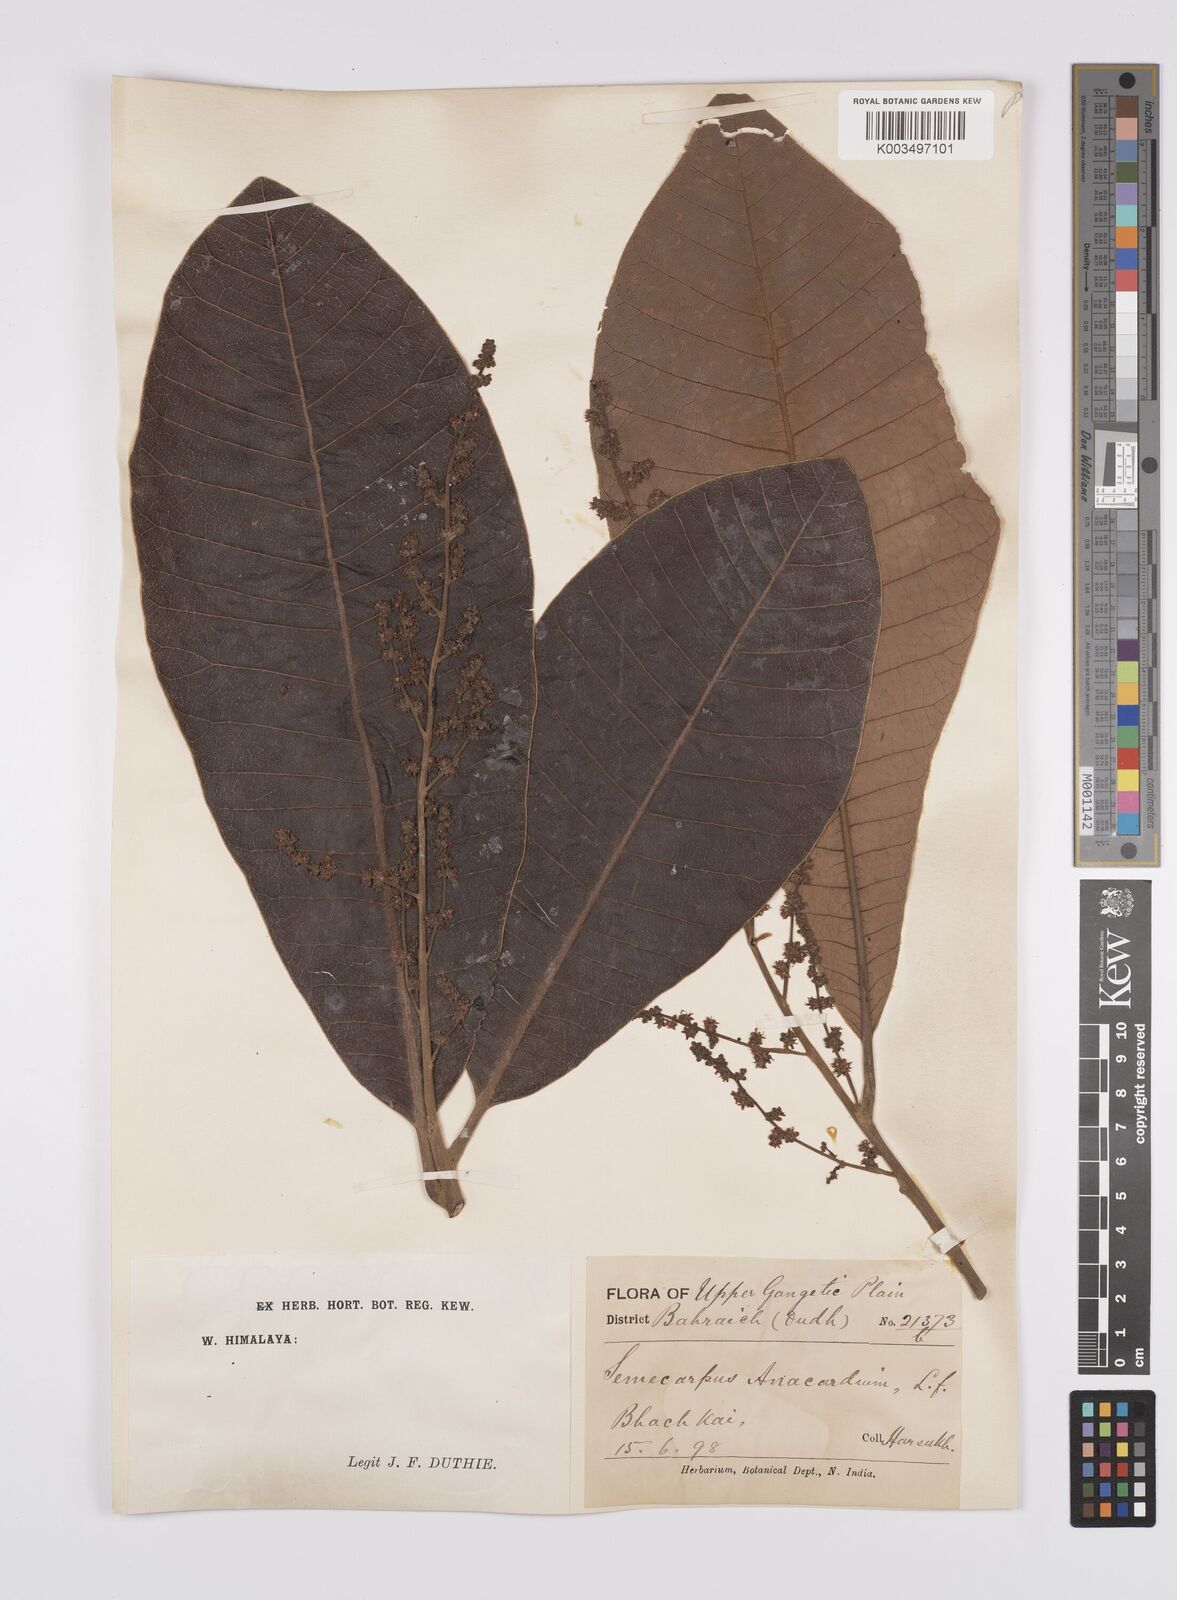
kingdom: Plantae
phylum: Tracheophyta
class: Magnoliopsida
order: Sapindales
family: Anacardiaceae
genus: Semecarpus
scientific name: Semecarpus anacardium
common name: Marking nut-tree
